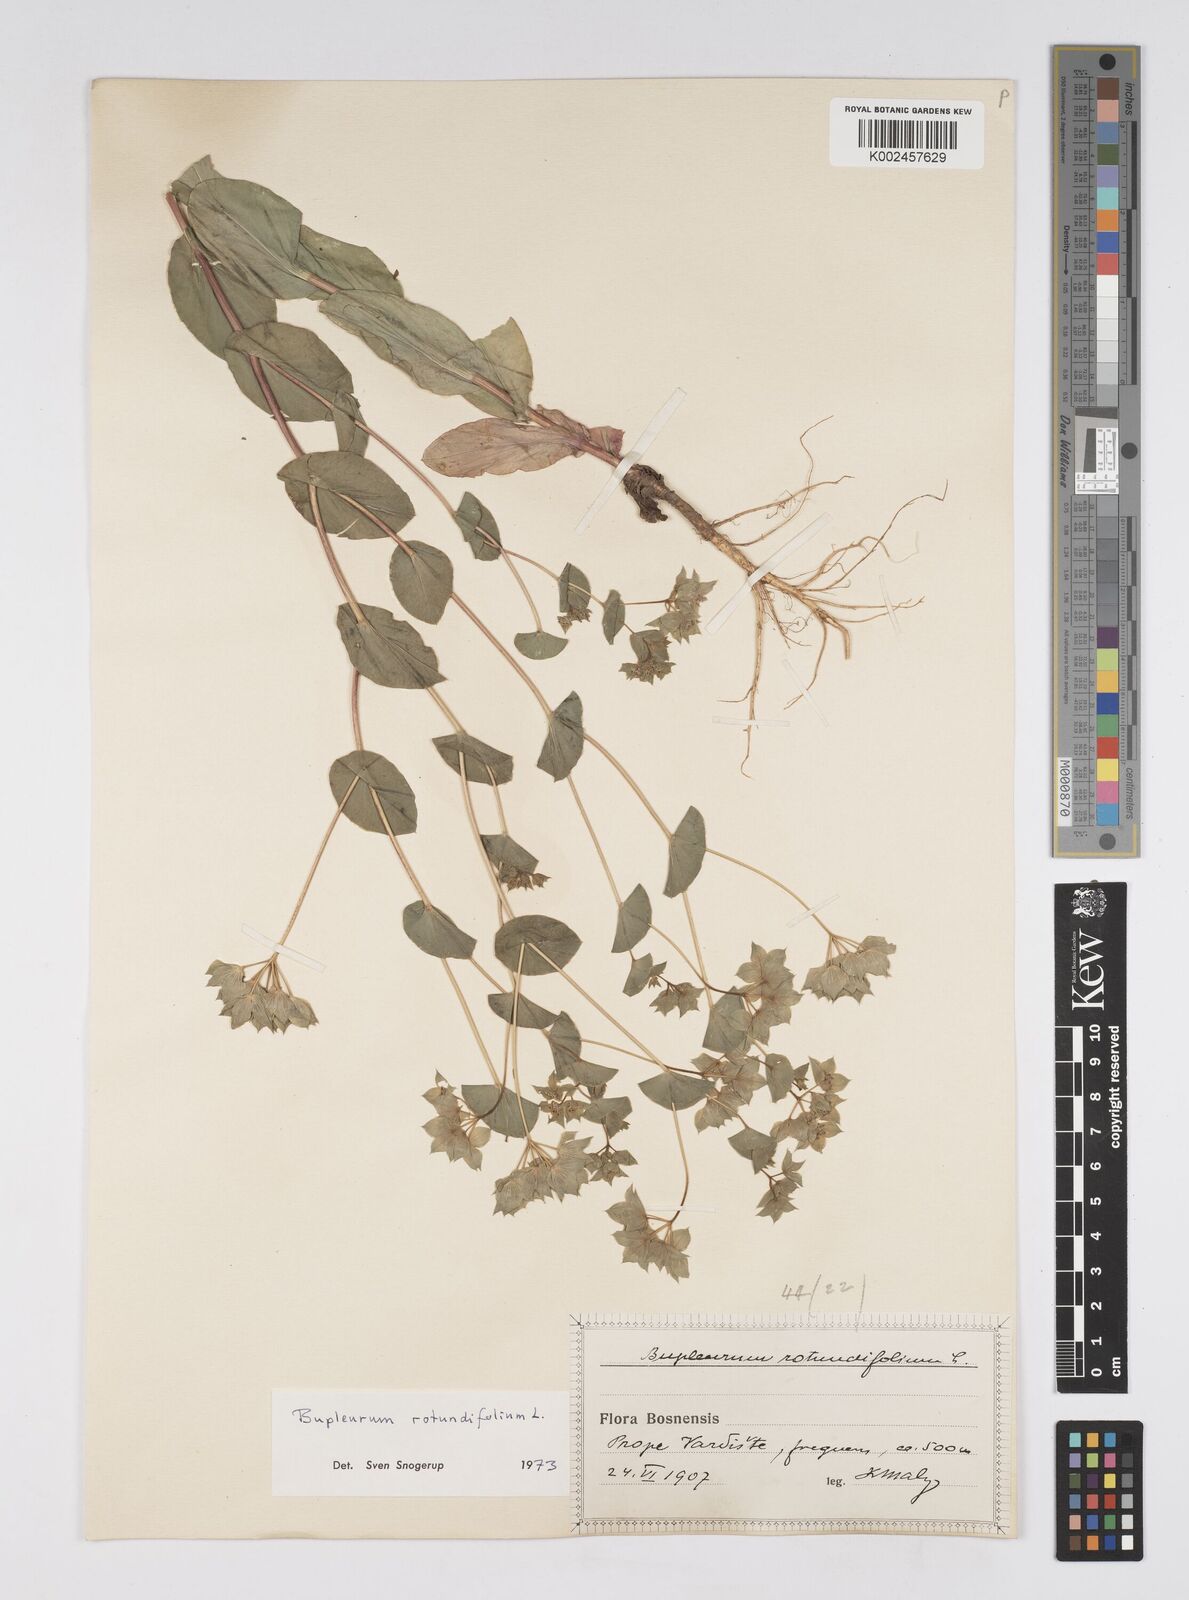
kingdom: Plantae
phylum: Tracheophyta
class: Magnoliopsida
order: Apiales
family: Apiaceae
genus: Bupleurum
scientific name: Bupleurum rotundifolium
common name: Thorow-wax
